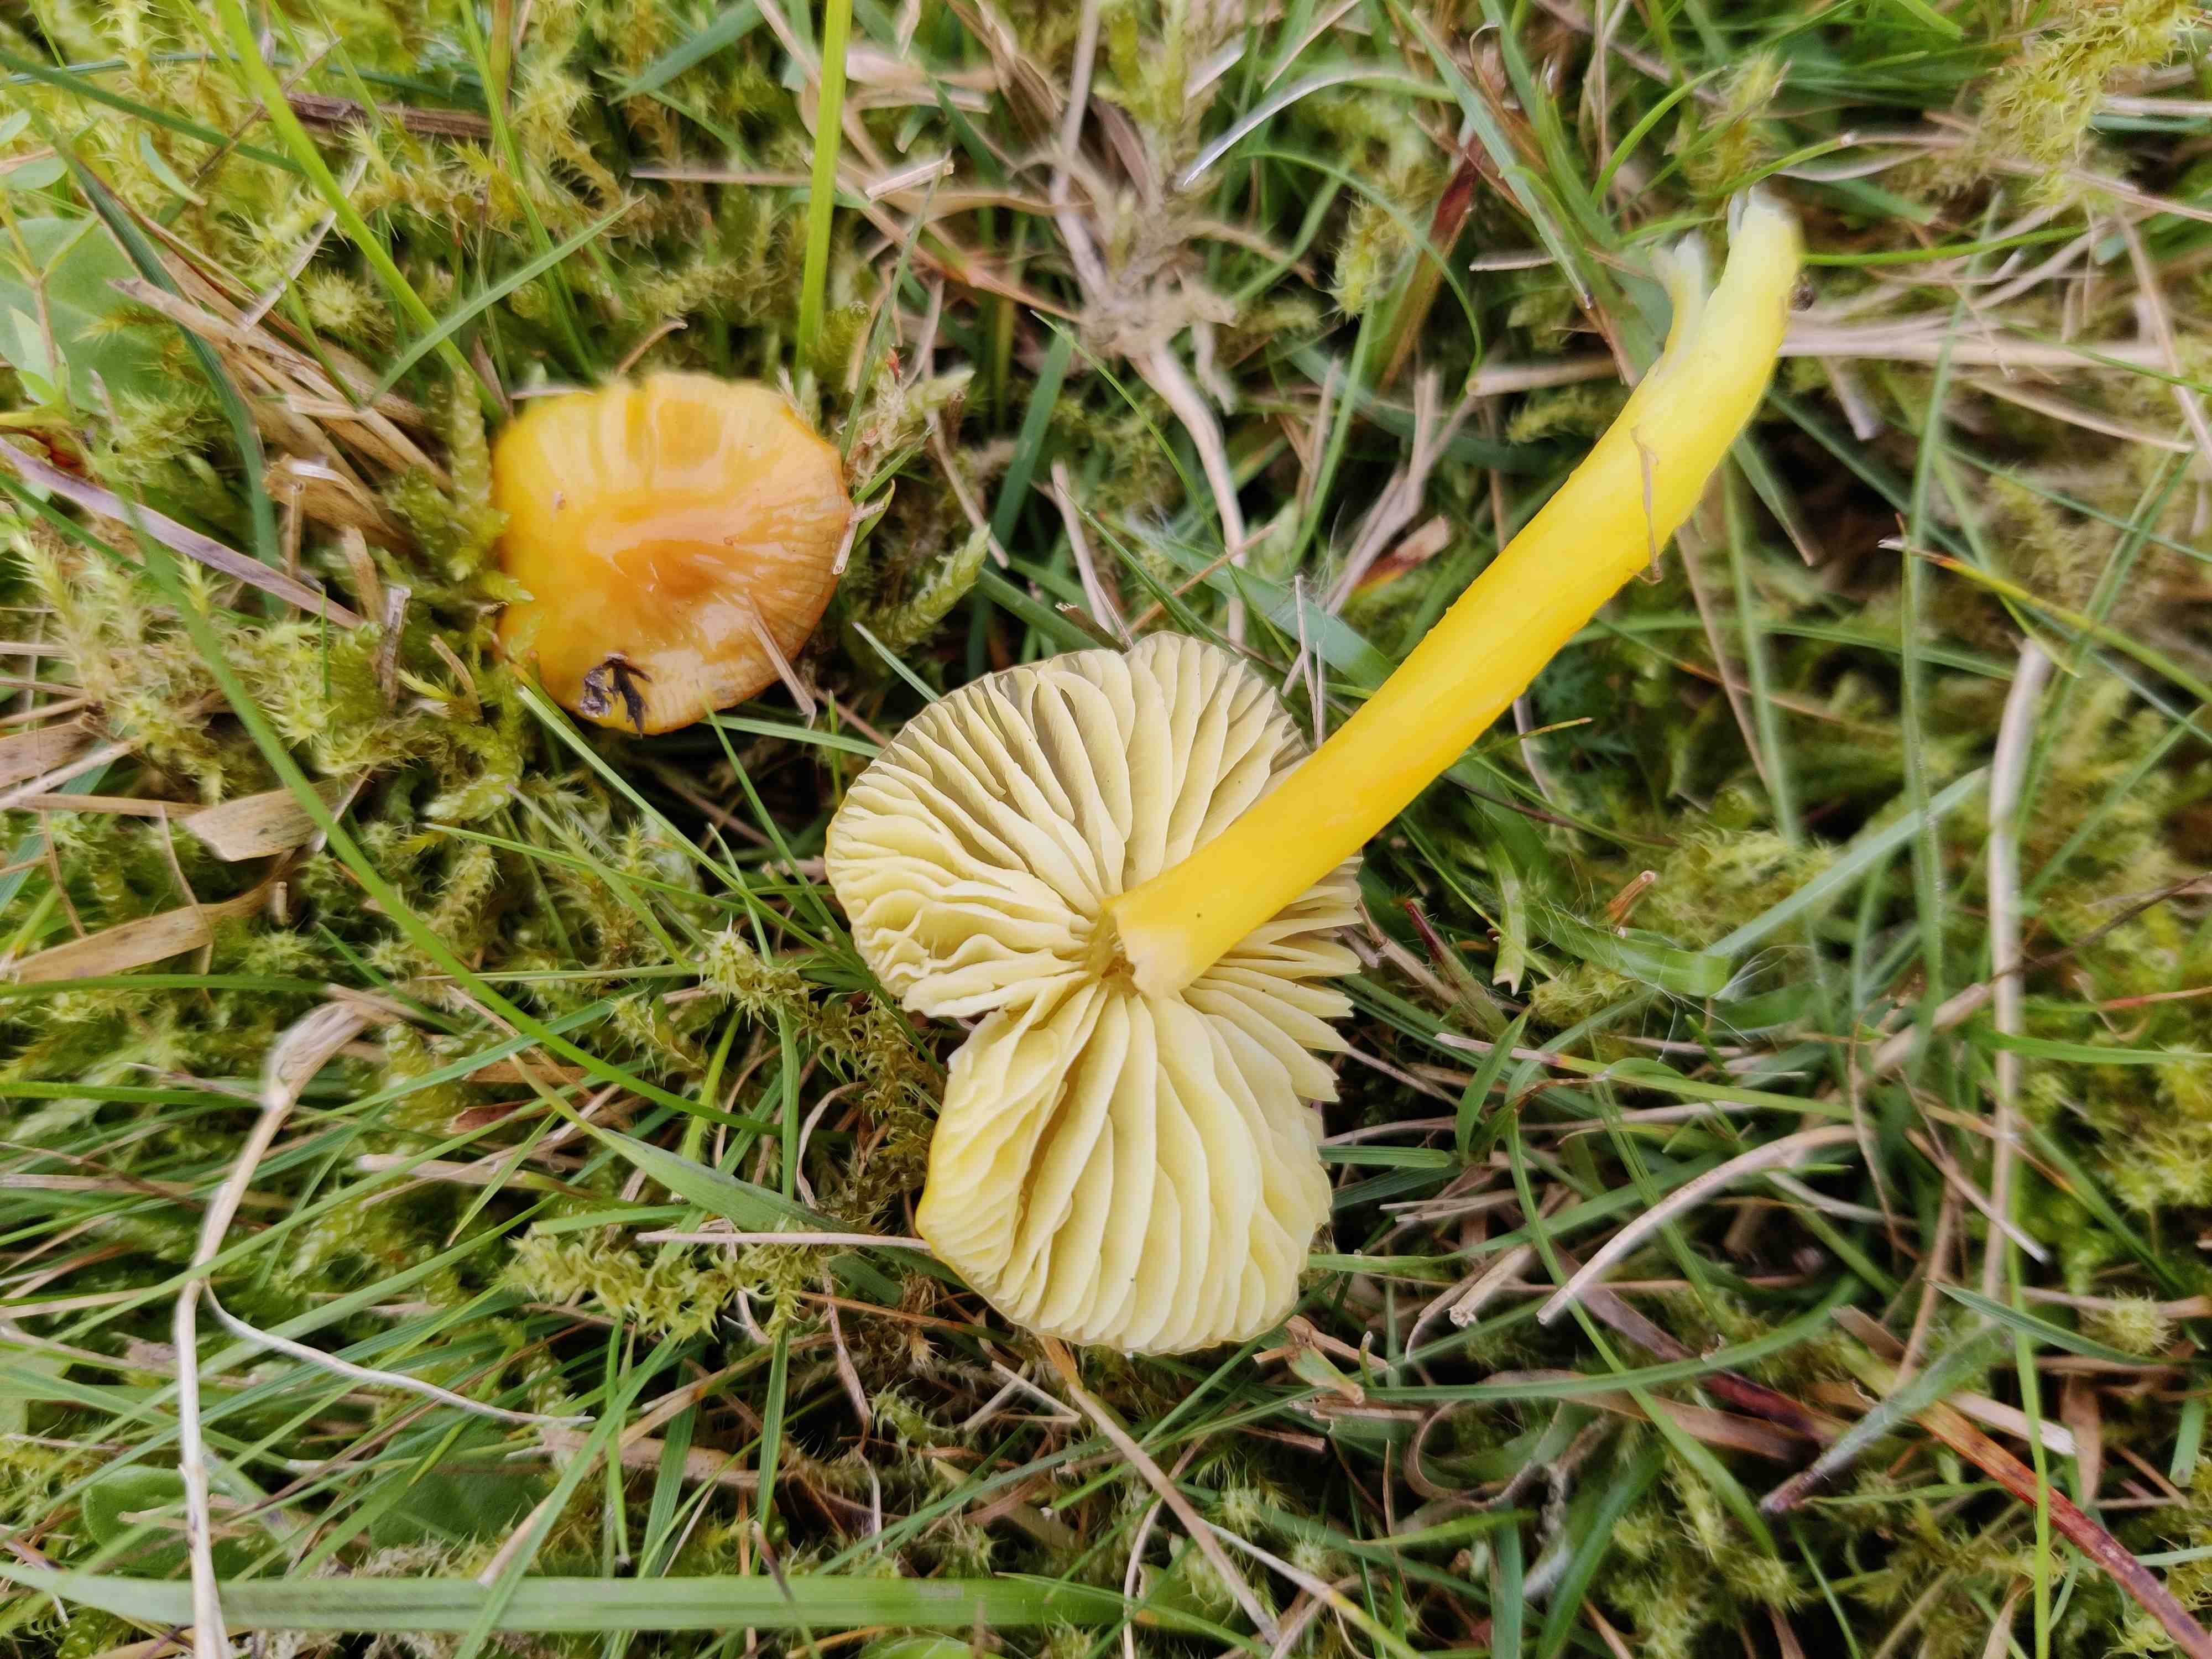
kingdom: Fungi
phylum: Basidiomycota
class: Agaricomycetes
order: Agaricales
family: Hygrophoraceae
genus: Hygrocybe
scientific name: Hygrocybe chlorophana
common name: gul vokshat
